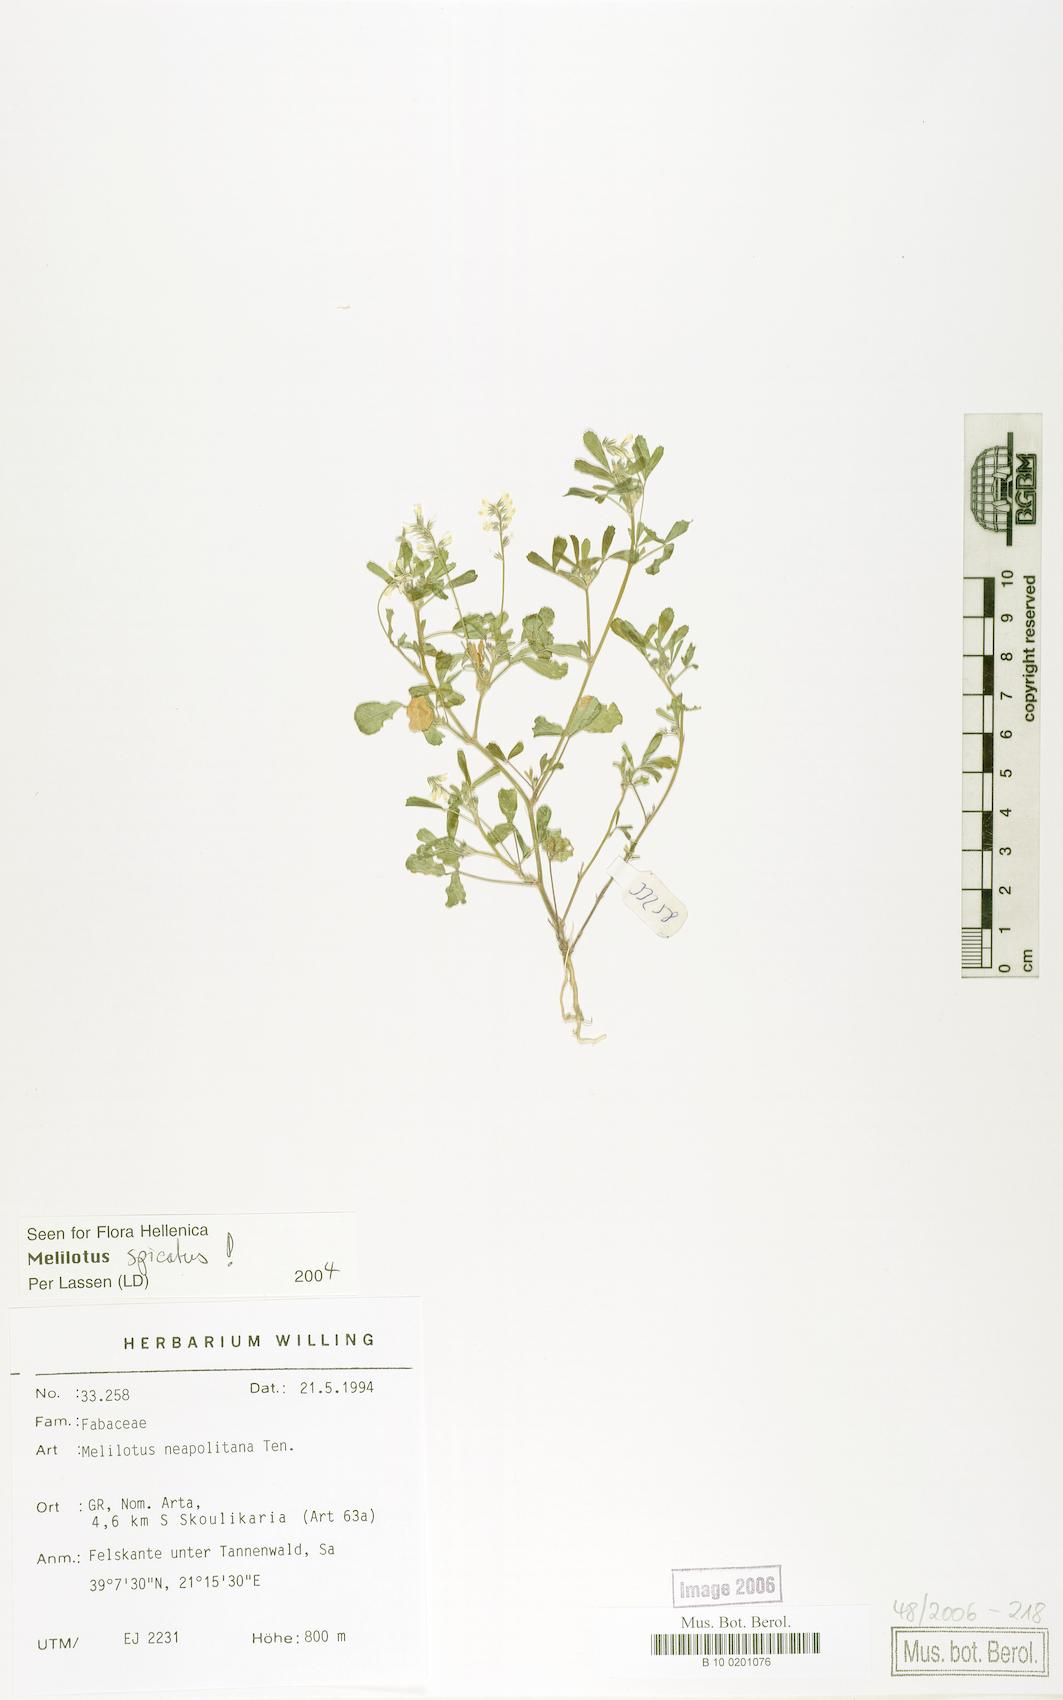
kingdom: Plantae
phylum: Tracheophyta
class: Magnoliopsida
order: Fabales
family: Fabaceae
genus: Melilotus
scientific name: Melilotus neapolitanus
